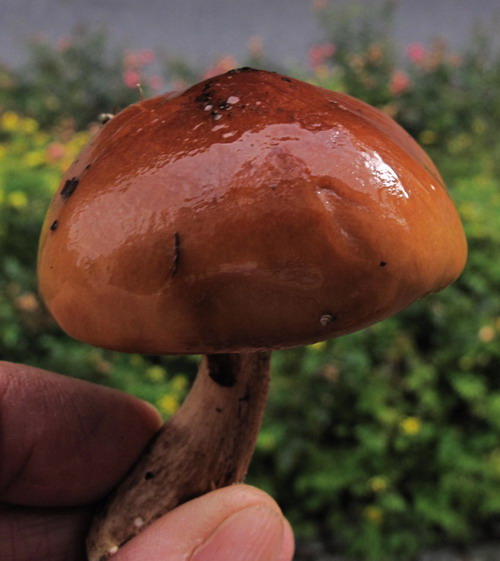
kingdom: Fungi
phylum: Basidiomycota
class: Agaricomycetes
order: Agaricales
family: Tricholomataceae
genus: Tricholoma
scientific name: Tricholoma ustale
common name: sveden ridderhat
